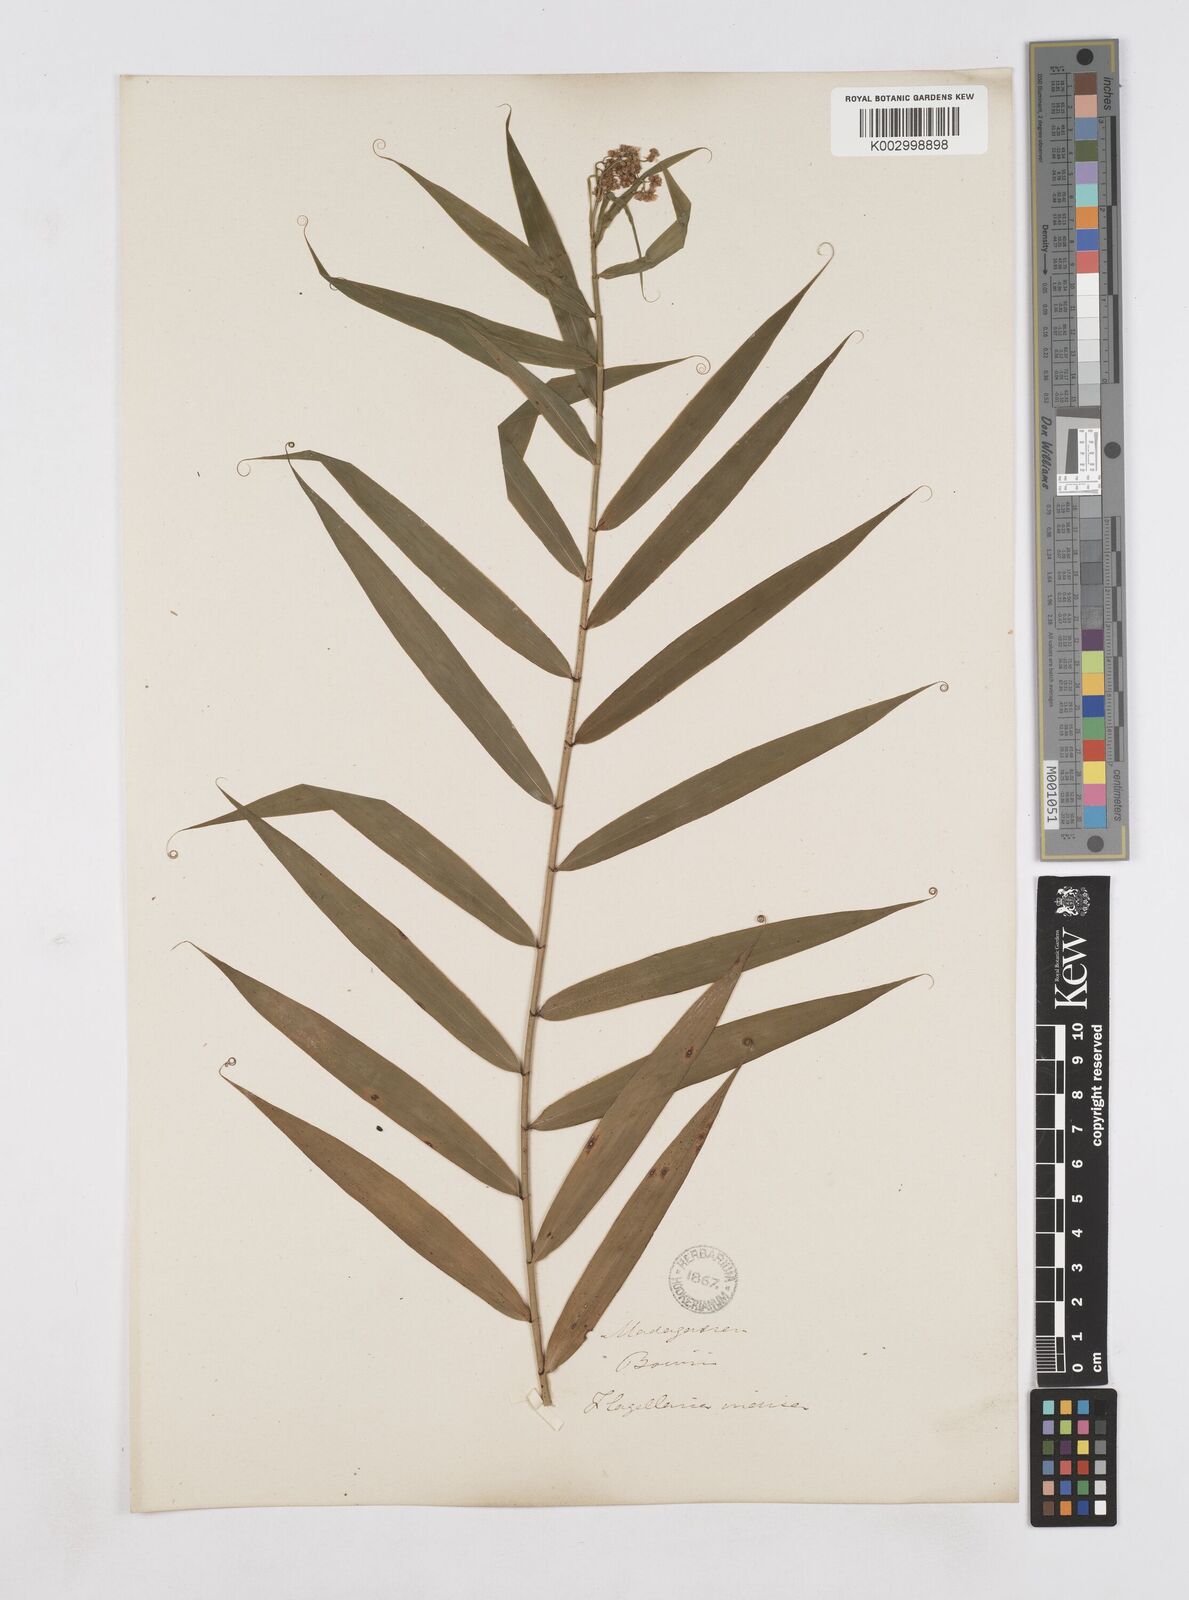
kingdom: Plantae
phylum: Tracheophyta
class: Liliopsida
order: Poales
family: Flagellariaceae
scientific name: Flagellariaceae
